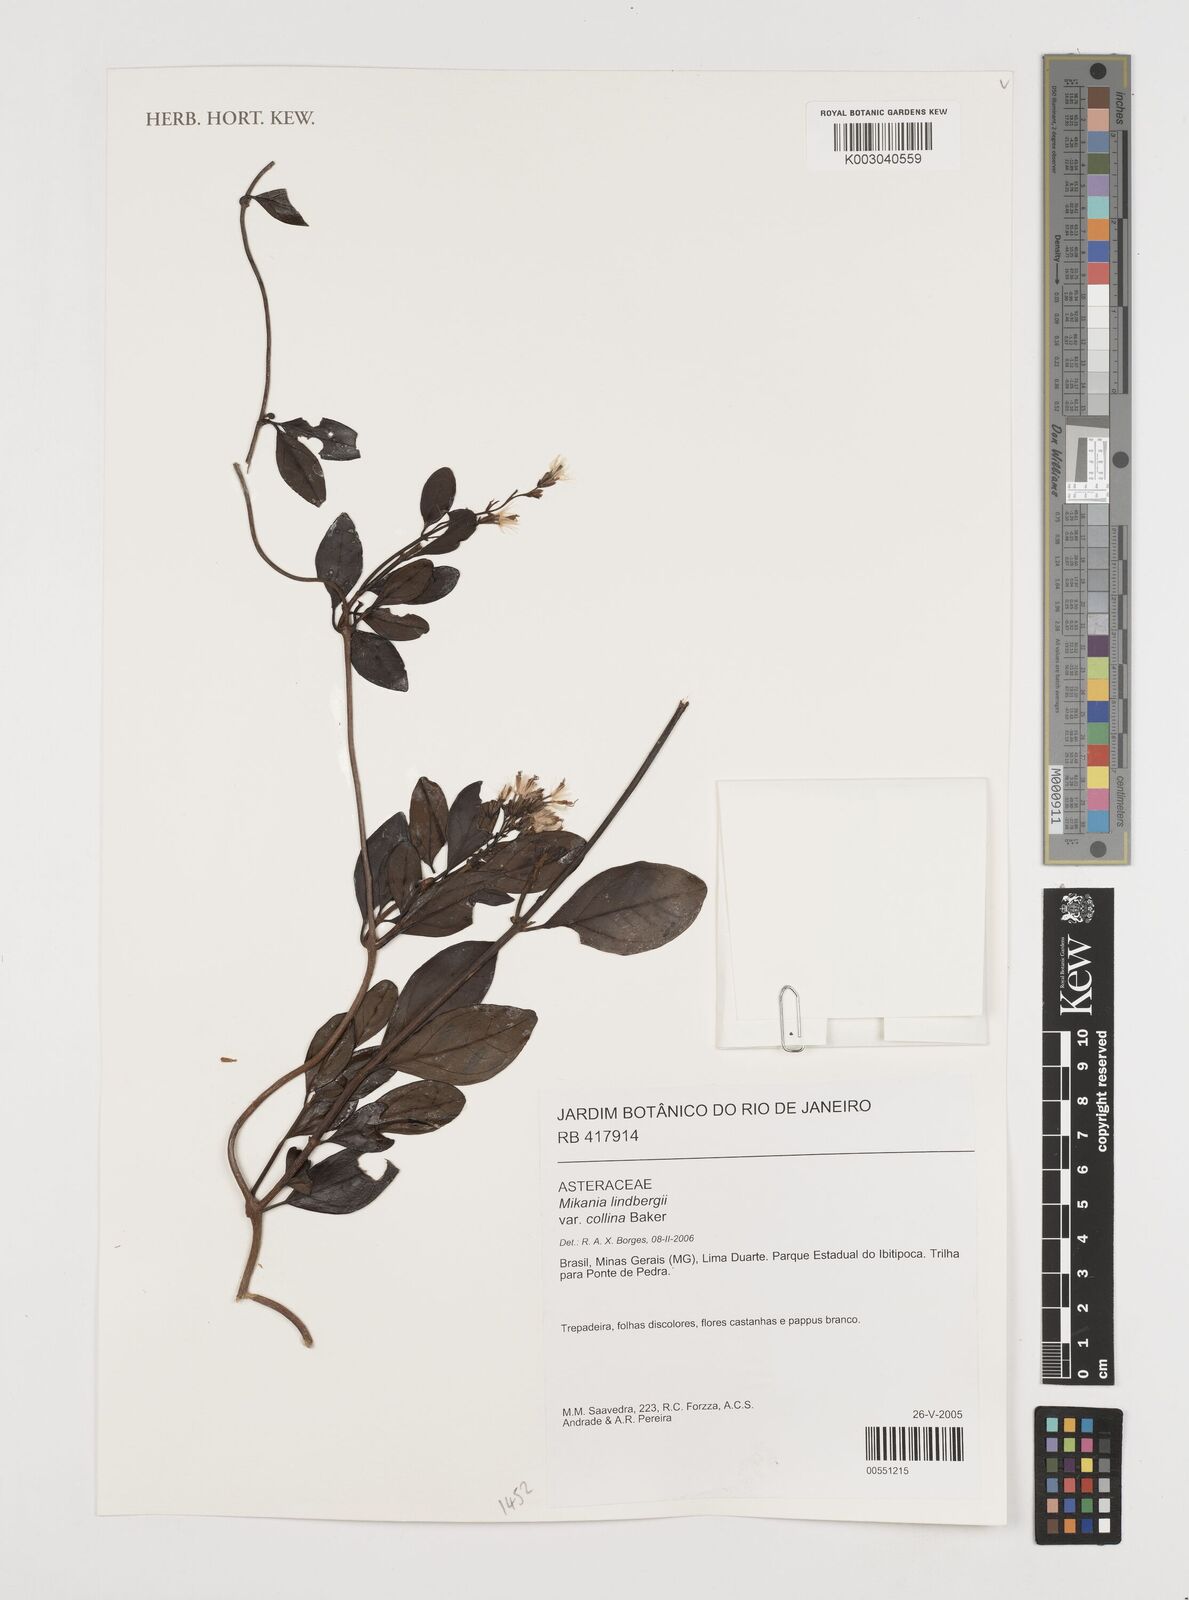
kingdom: Plantae
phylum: Tracheophyta
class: Magnoliopsida
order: Asterales
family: Asteraceae
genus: Mikania
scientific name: Mikania lindbergii
